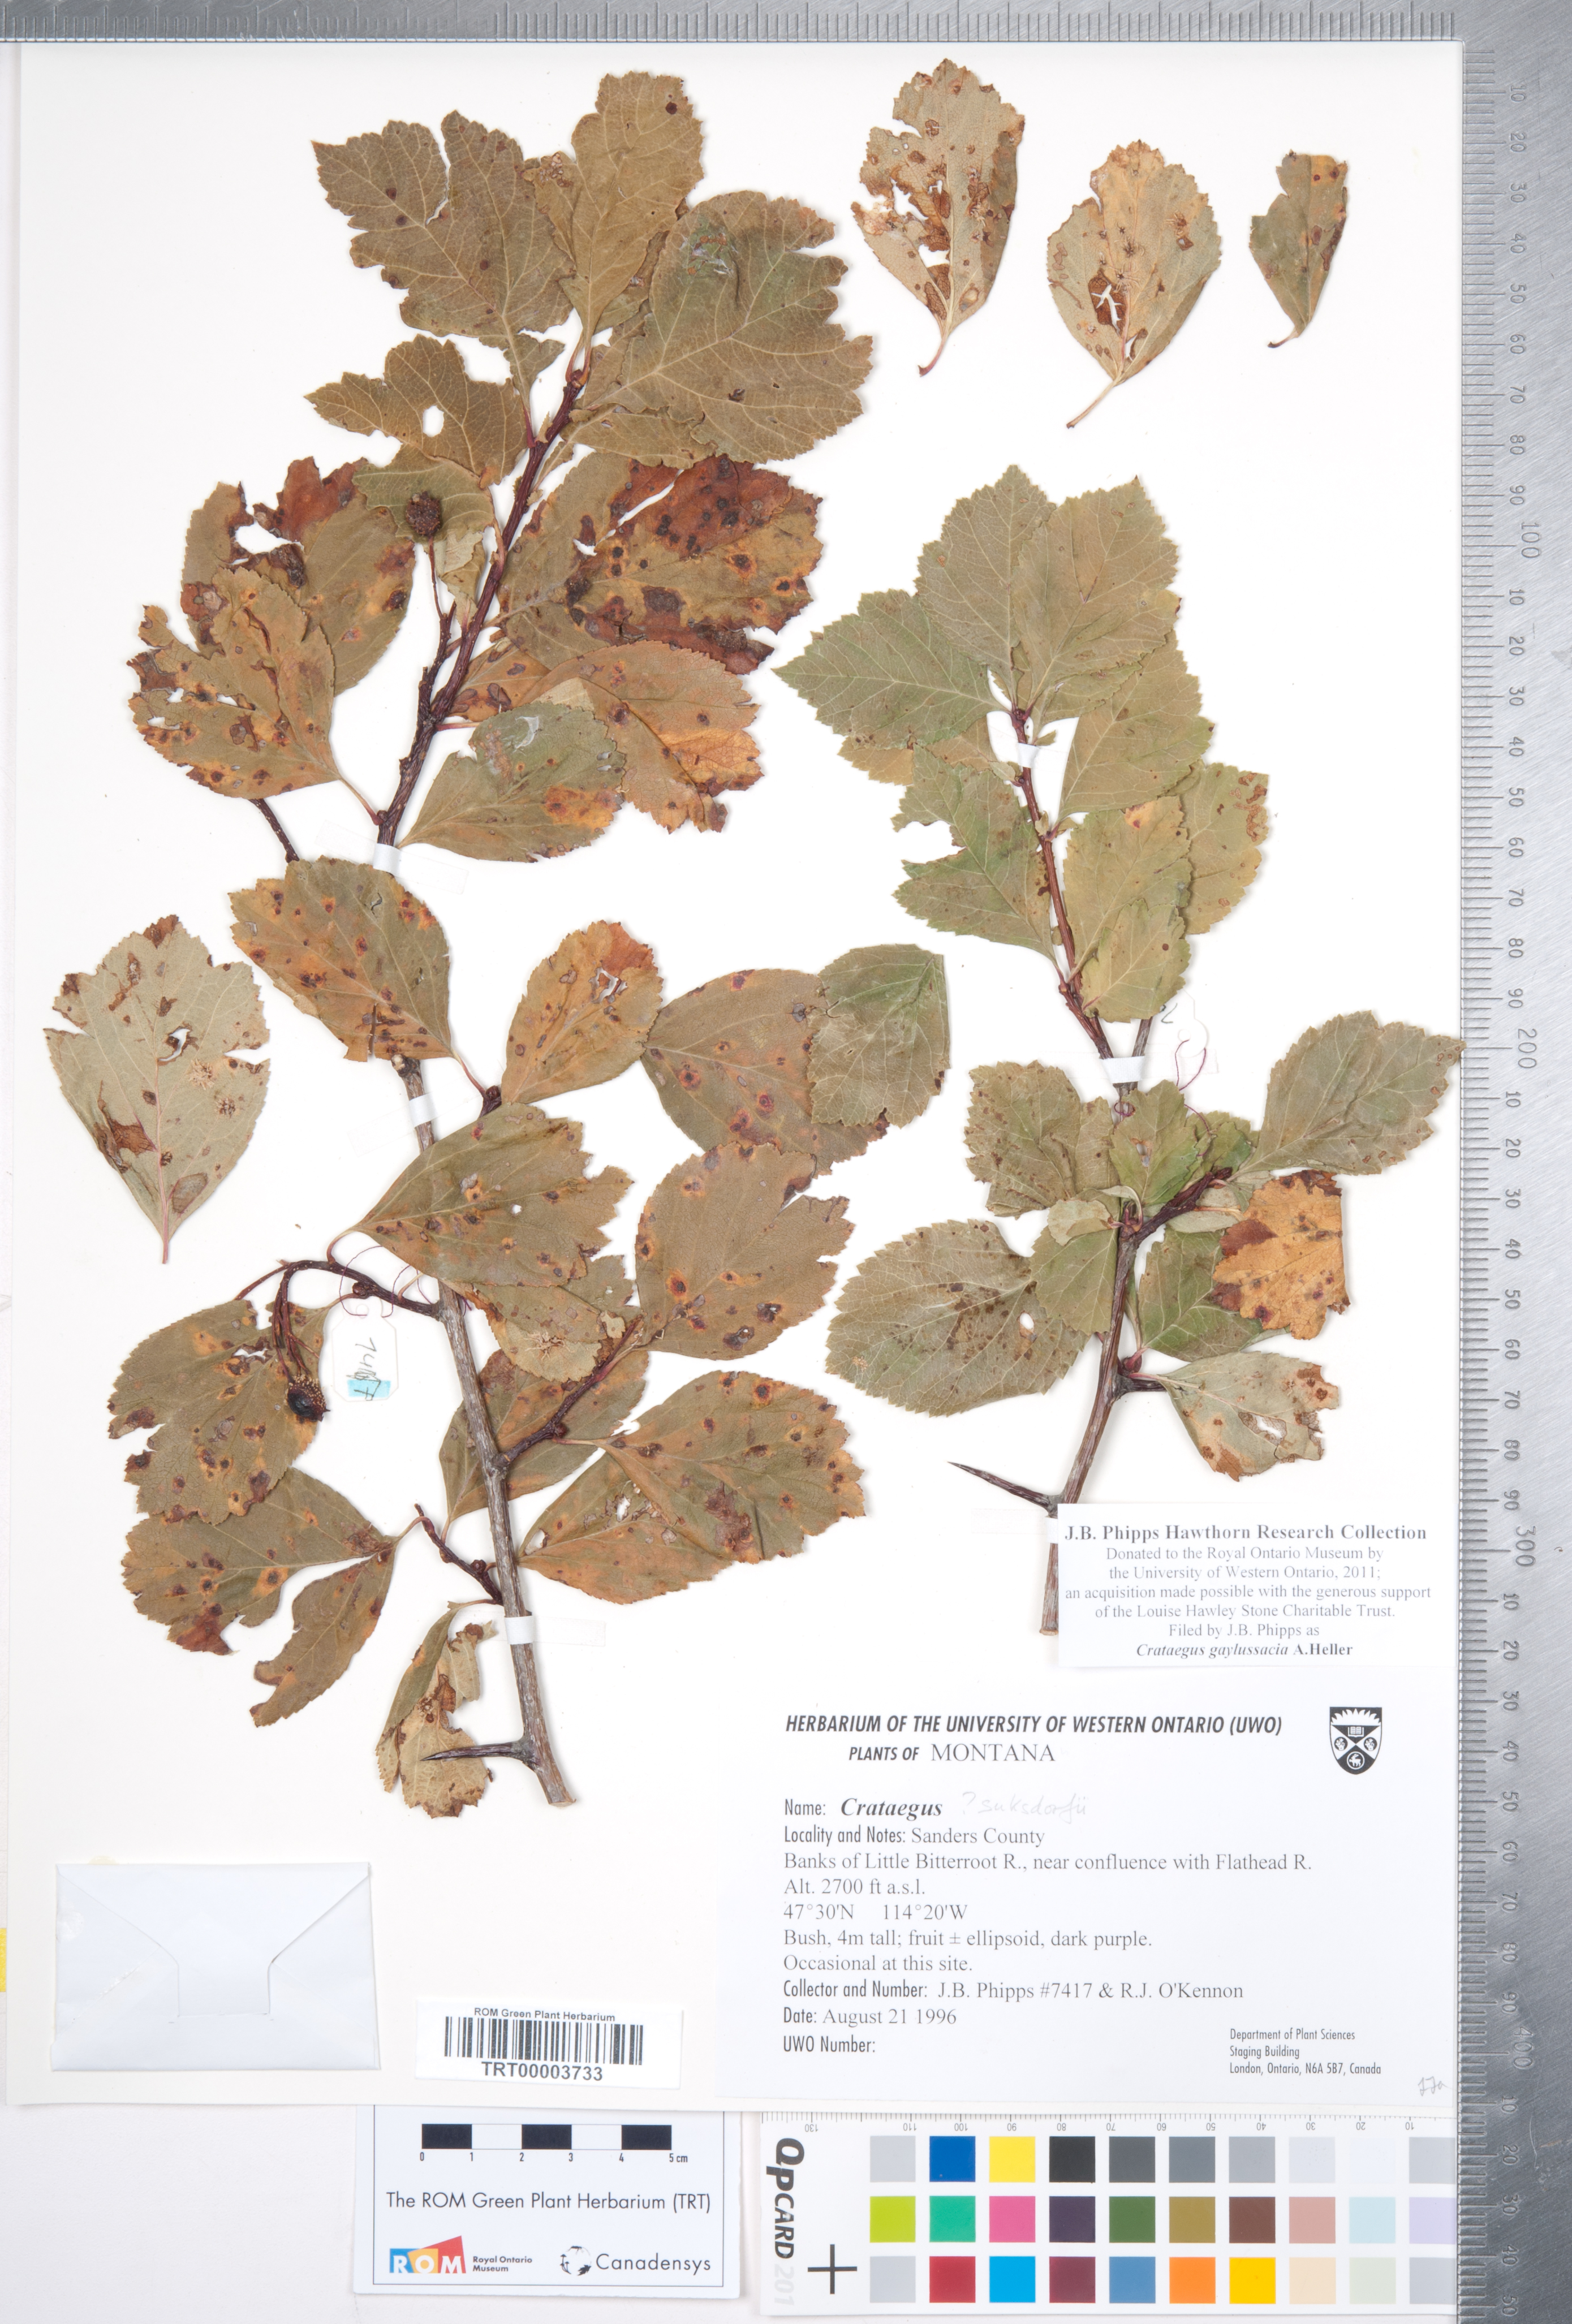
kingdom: Plantae
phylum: Tracheophyta
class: Magnoliopsida
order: Rosales
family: Rosaceae
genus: Crataegus
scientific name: Crataegus gaylussacia
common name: Huckleberry hawthorn
